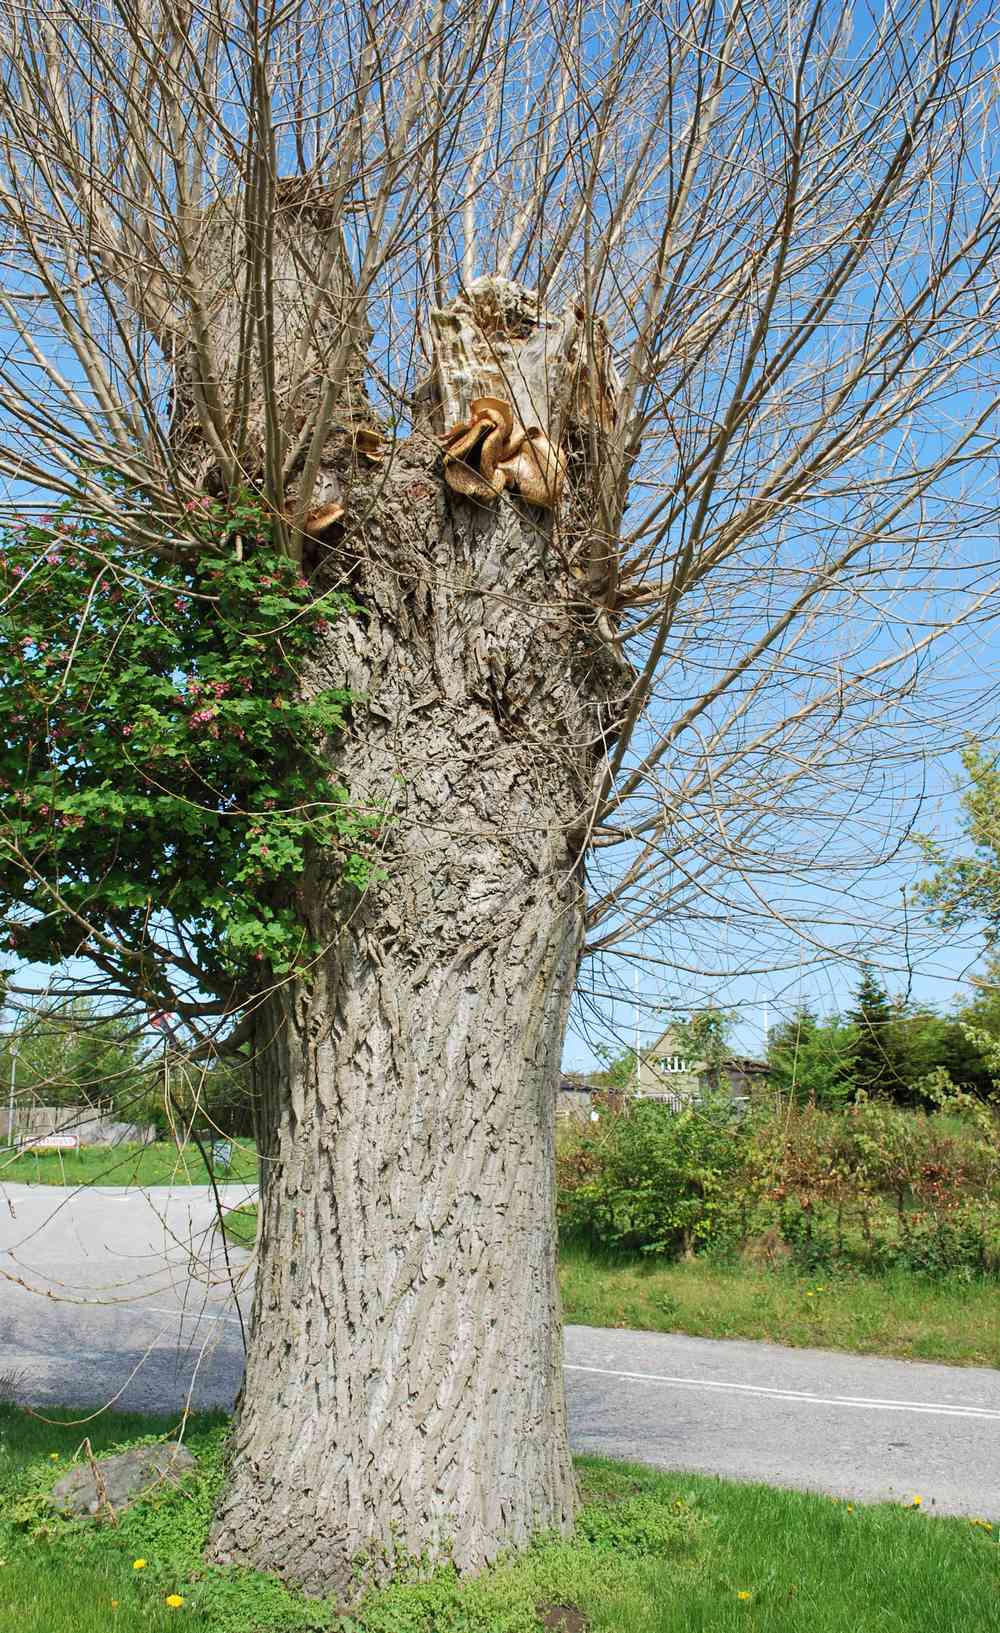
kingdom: Fungi
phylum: Basidiomycota
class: Agaricomycetes
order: Polyporales
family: Polyporaceae
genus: Cerioporus
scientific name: Cerioporus squamosus
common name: skællet stilkporesvamp
